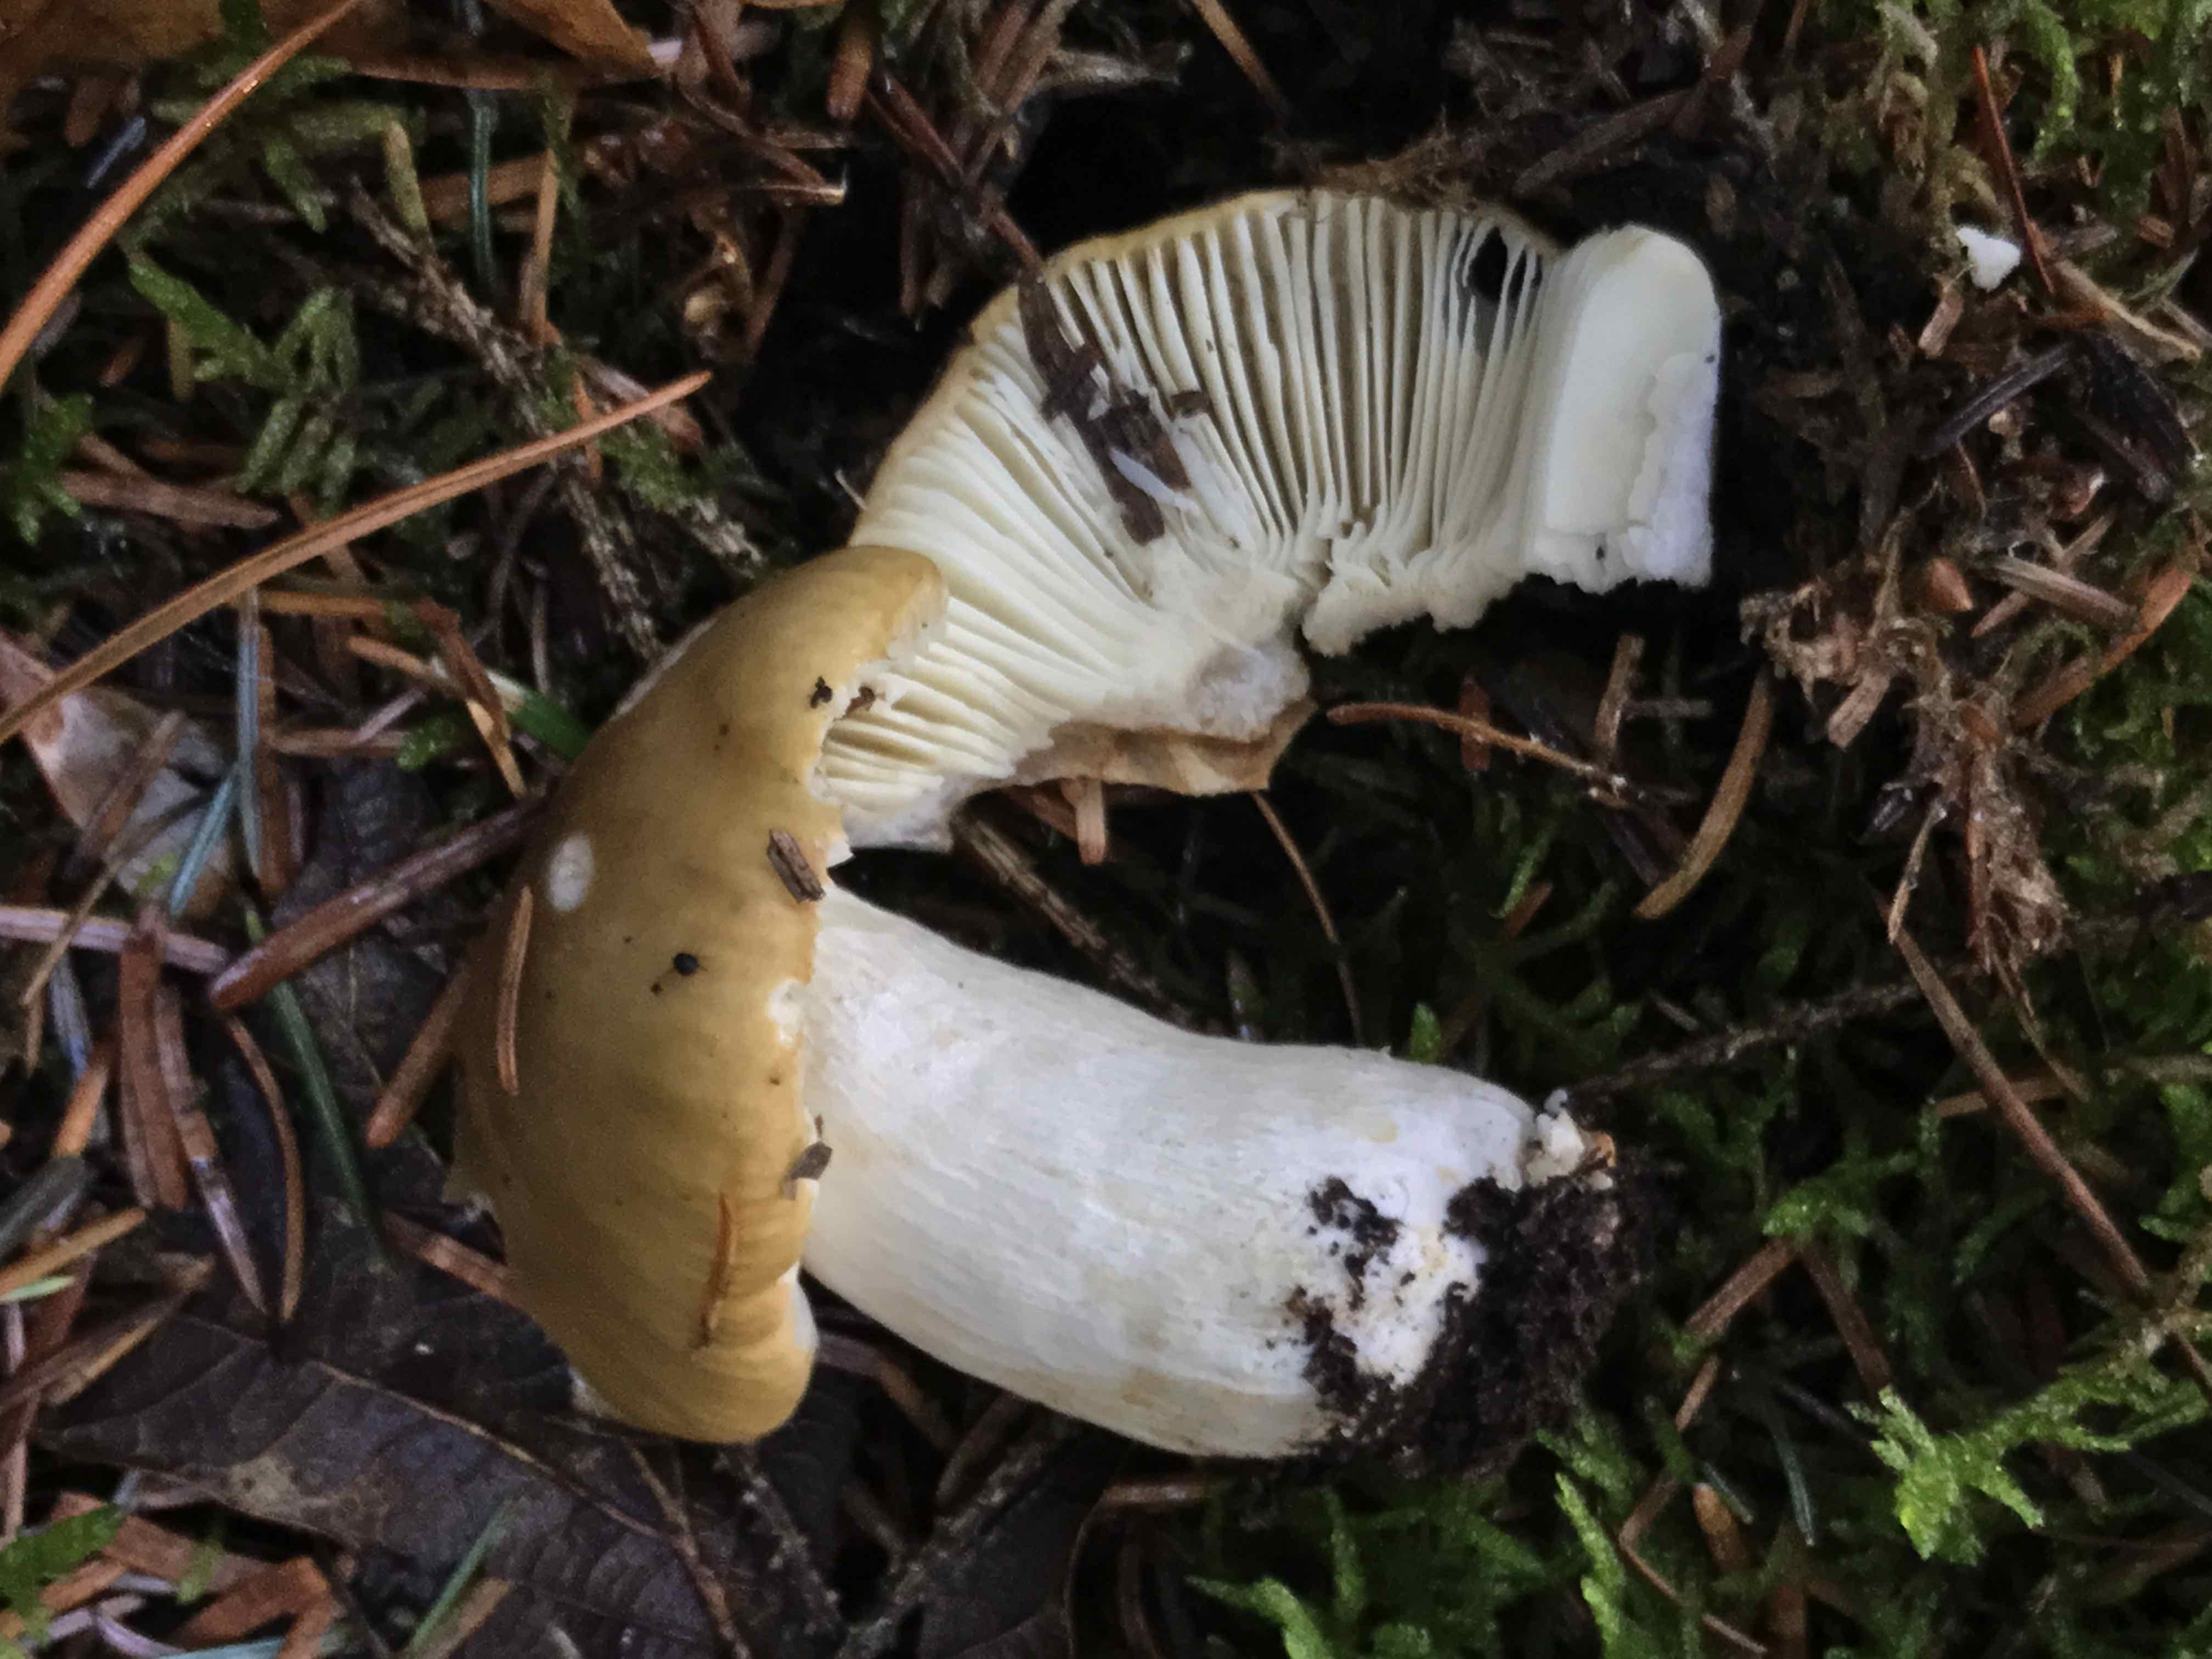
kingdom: Fungi
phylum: Basidiomycota
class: Agaricomycetes
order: Russulales
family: Russulaceae
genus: Russula
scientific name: Russula ochroleuca
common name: okkergul skørhat
